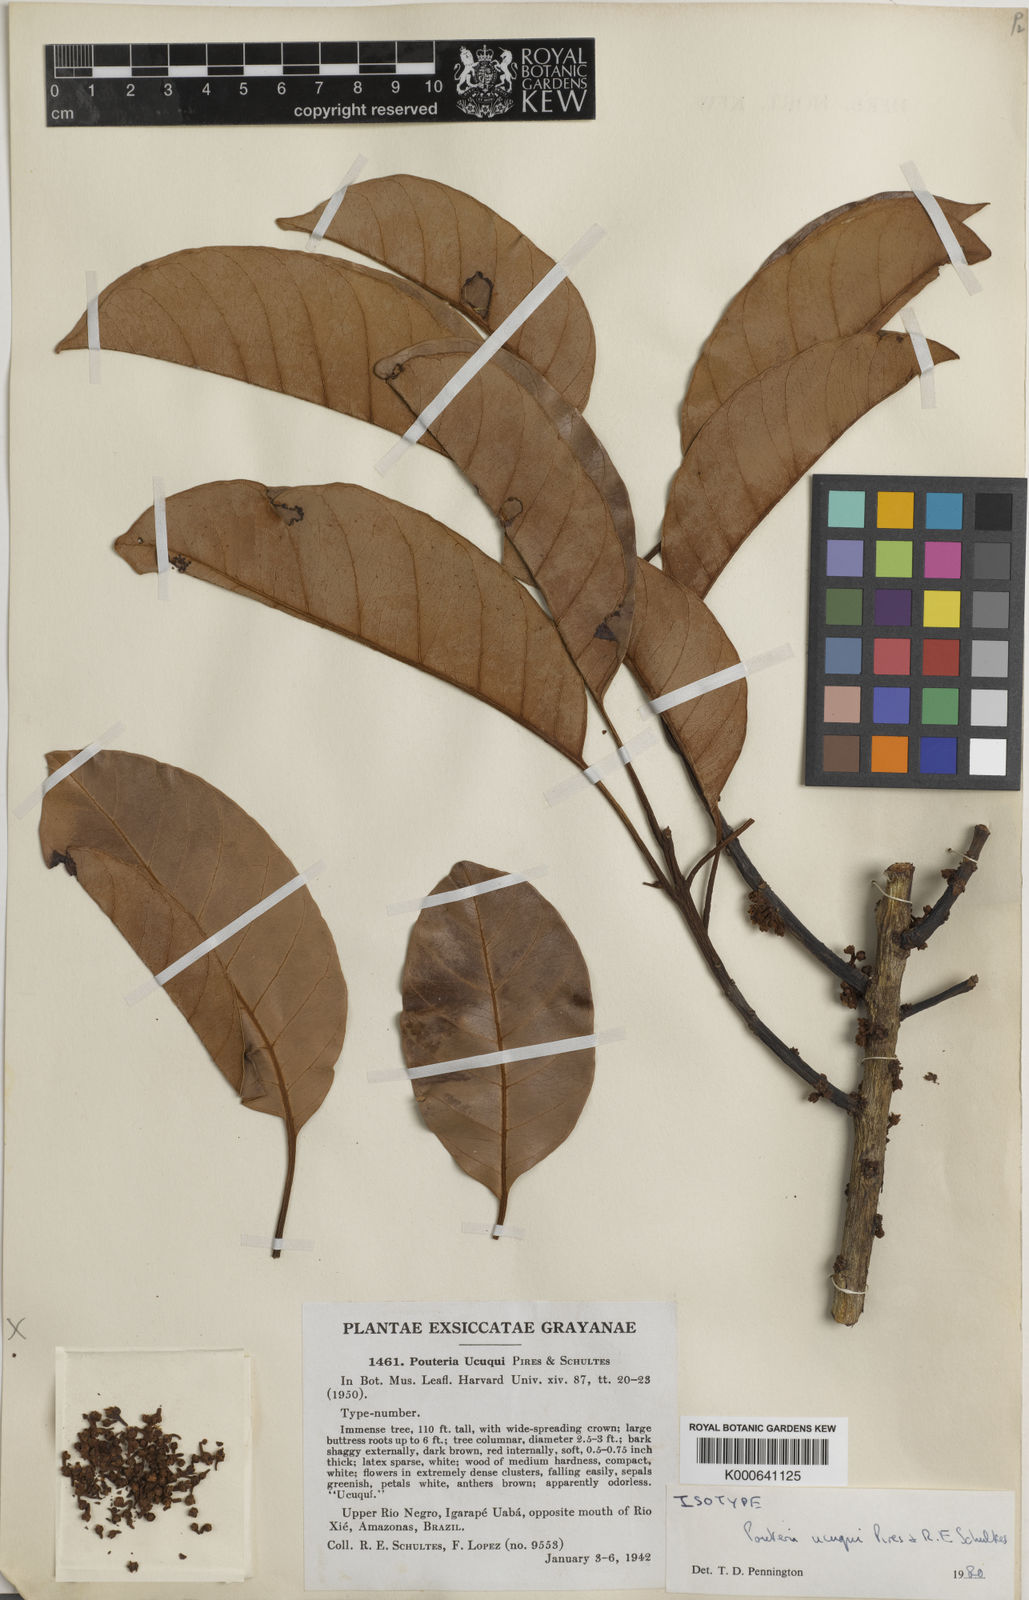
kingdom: Plantae
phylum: Tracheophyta
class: Magnoliopsida
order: Ericales
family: Sapotaceae
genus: Pouteria
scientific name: Pouteria ucuqui
